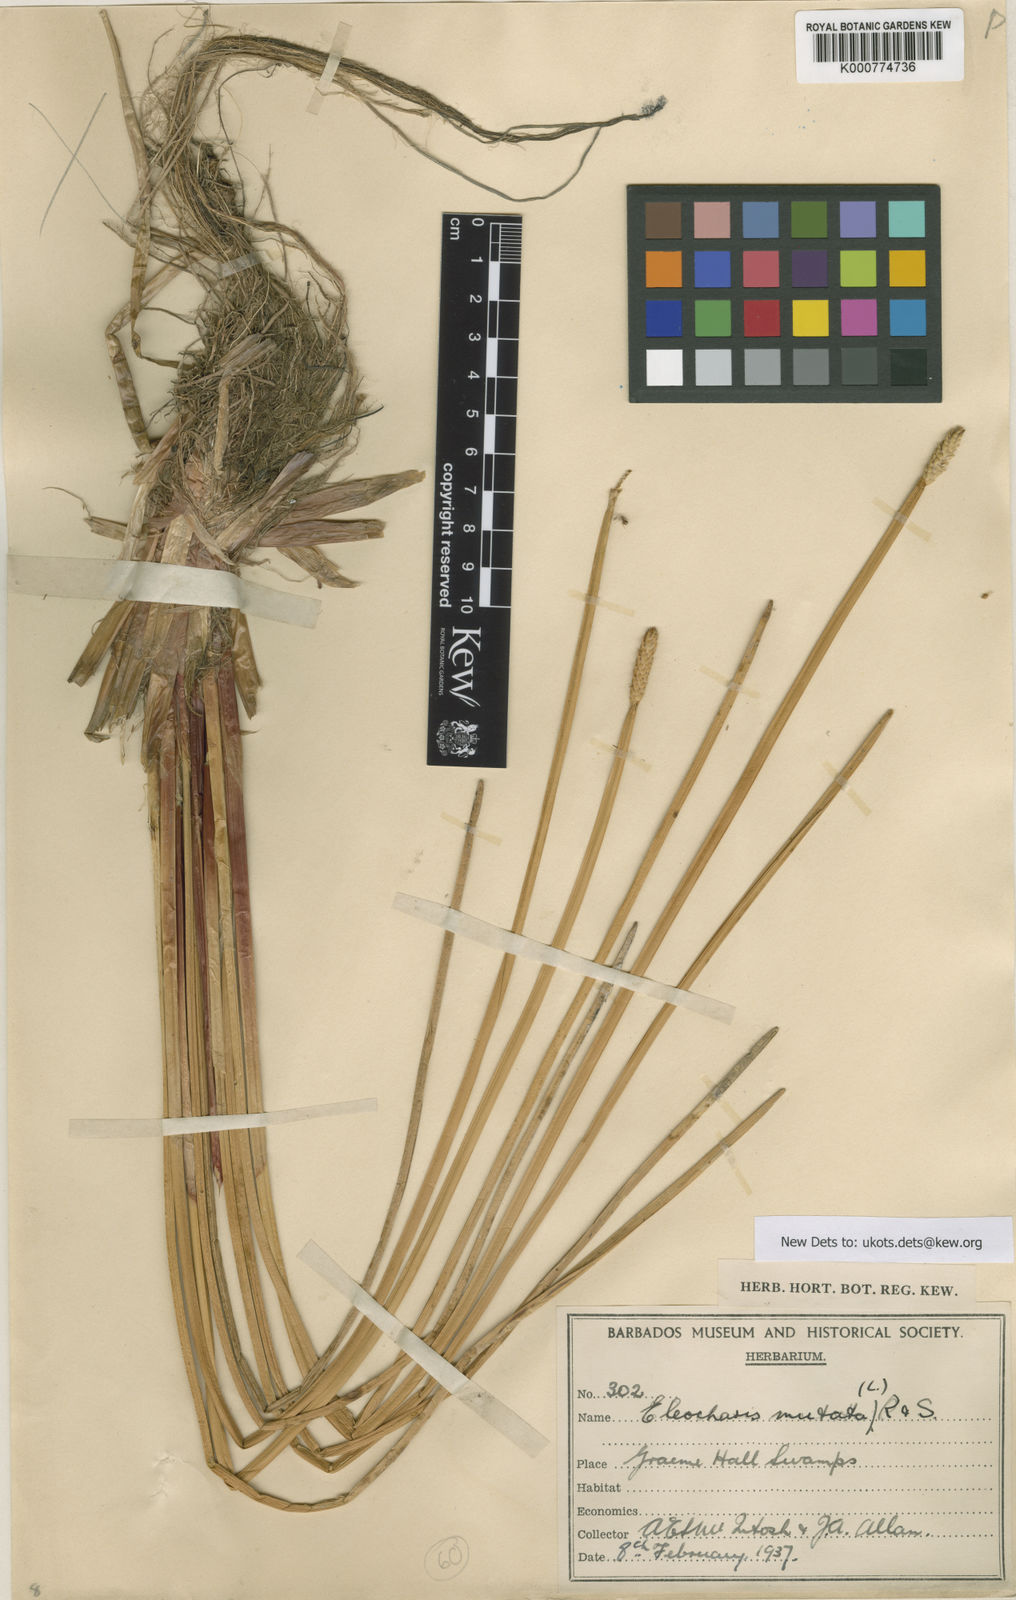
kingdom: Plantae
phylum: Tracheophyta
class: Liliopsida
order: Poales
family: Cyperaceae
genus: Eleocharis
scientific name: Eleocharis mutata
